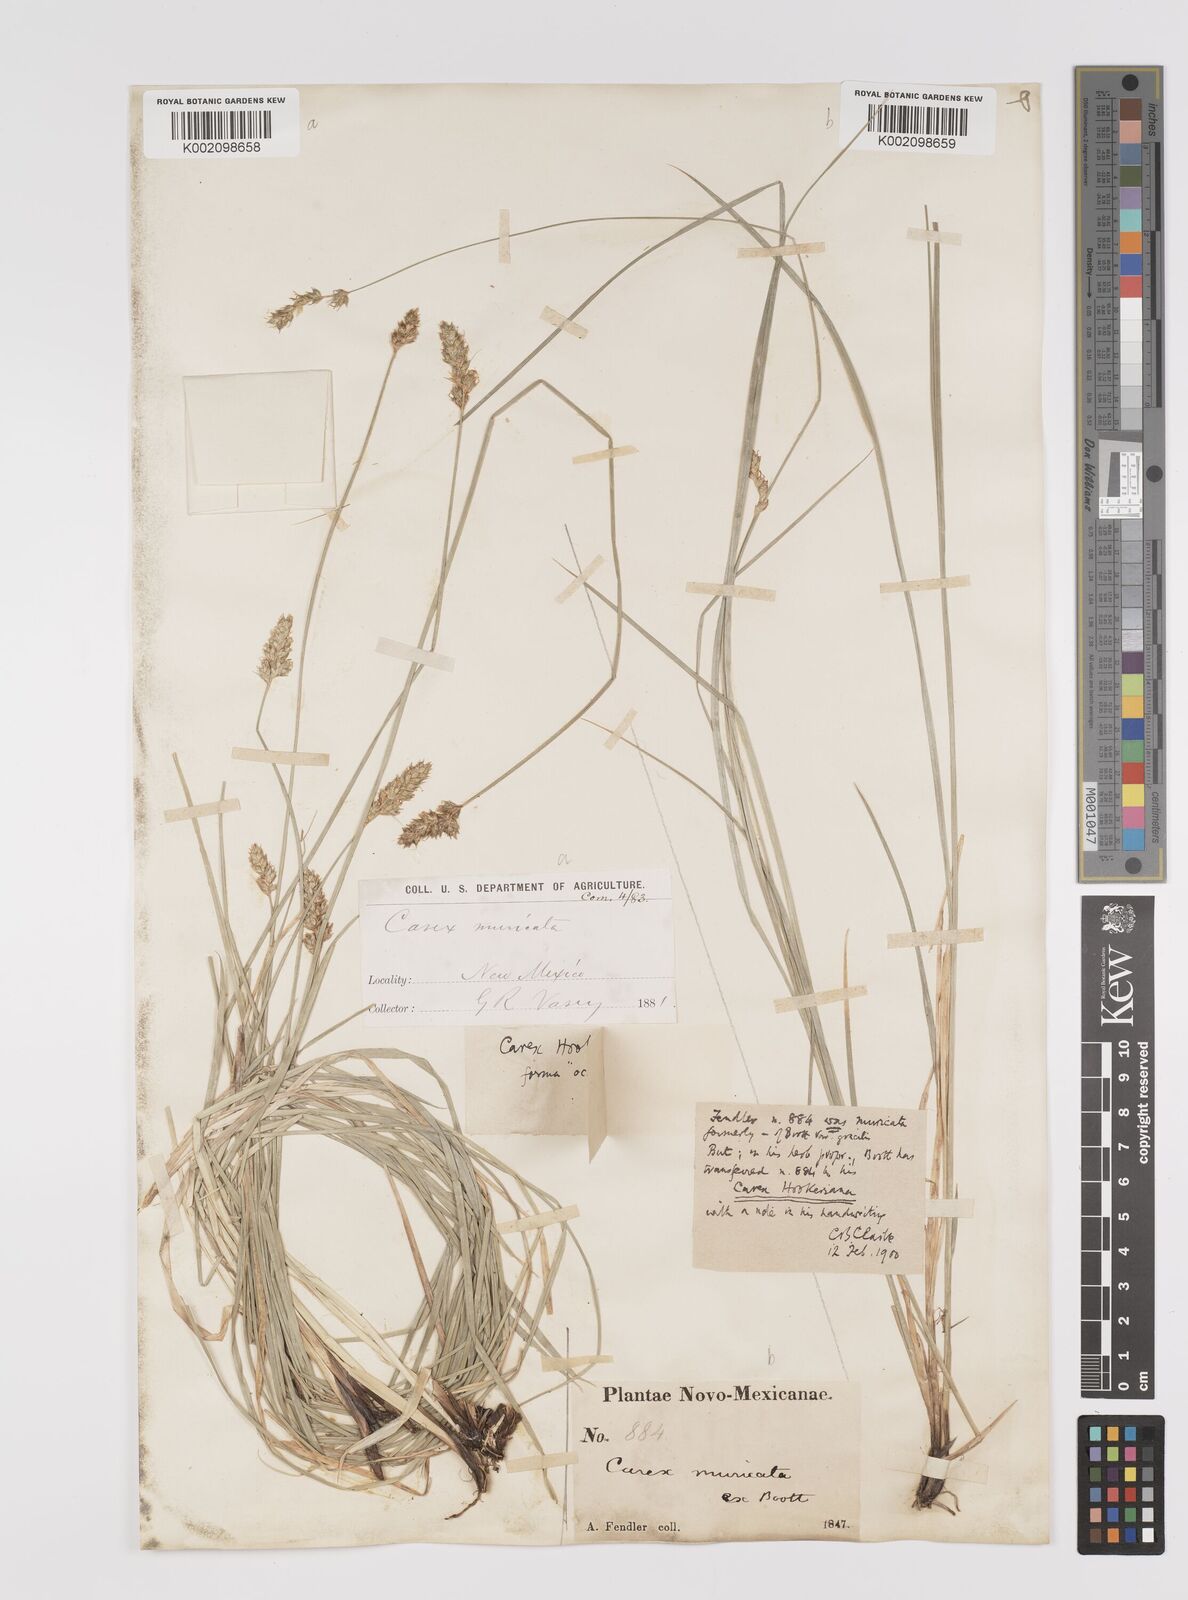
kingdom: Plantae
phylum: Tracheophyta
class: Liliopsida
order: Poales
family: Cyperaceae
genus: Carex
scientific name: Carex hookeriana
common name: Hooker's sedge
